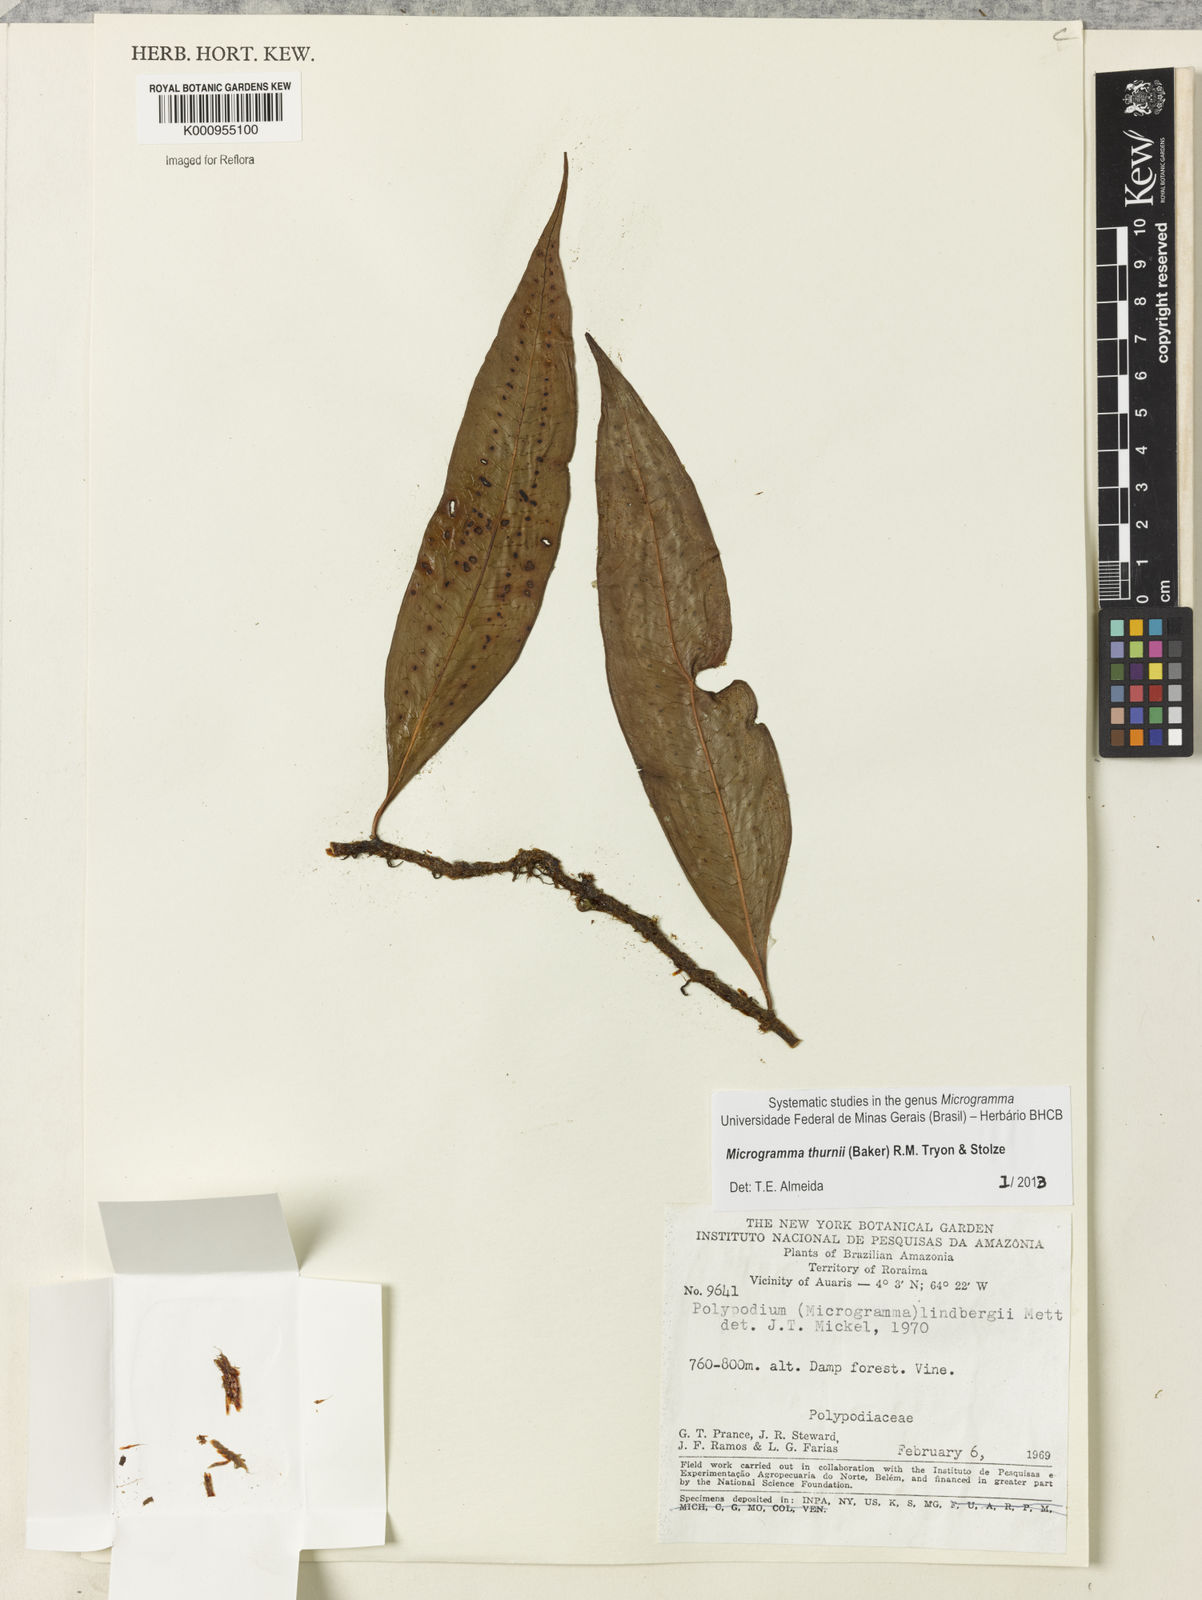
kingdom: Plantae
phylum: Tracheophyta
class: Polypodiopsida
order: Polypodiales
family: Polypodiaceae
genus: Microgramma
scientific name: Microgramma thurnii
